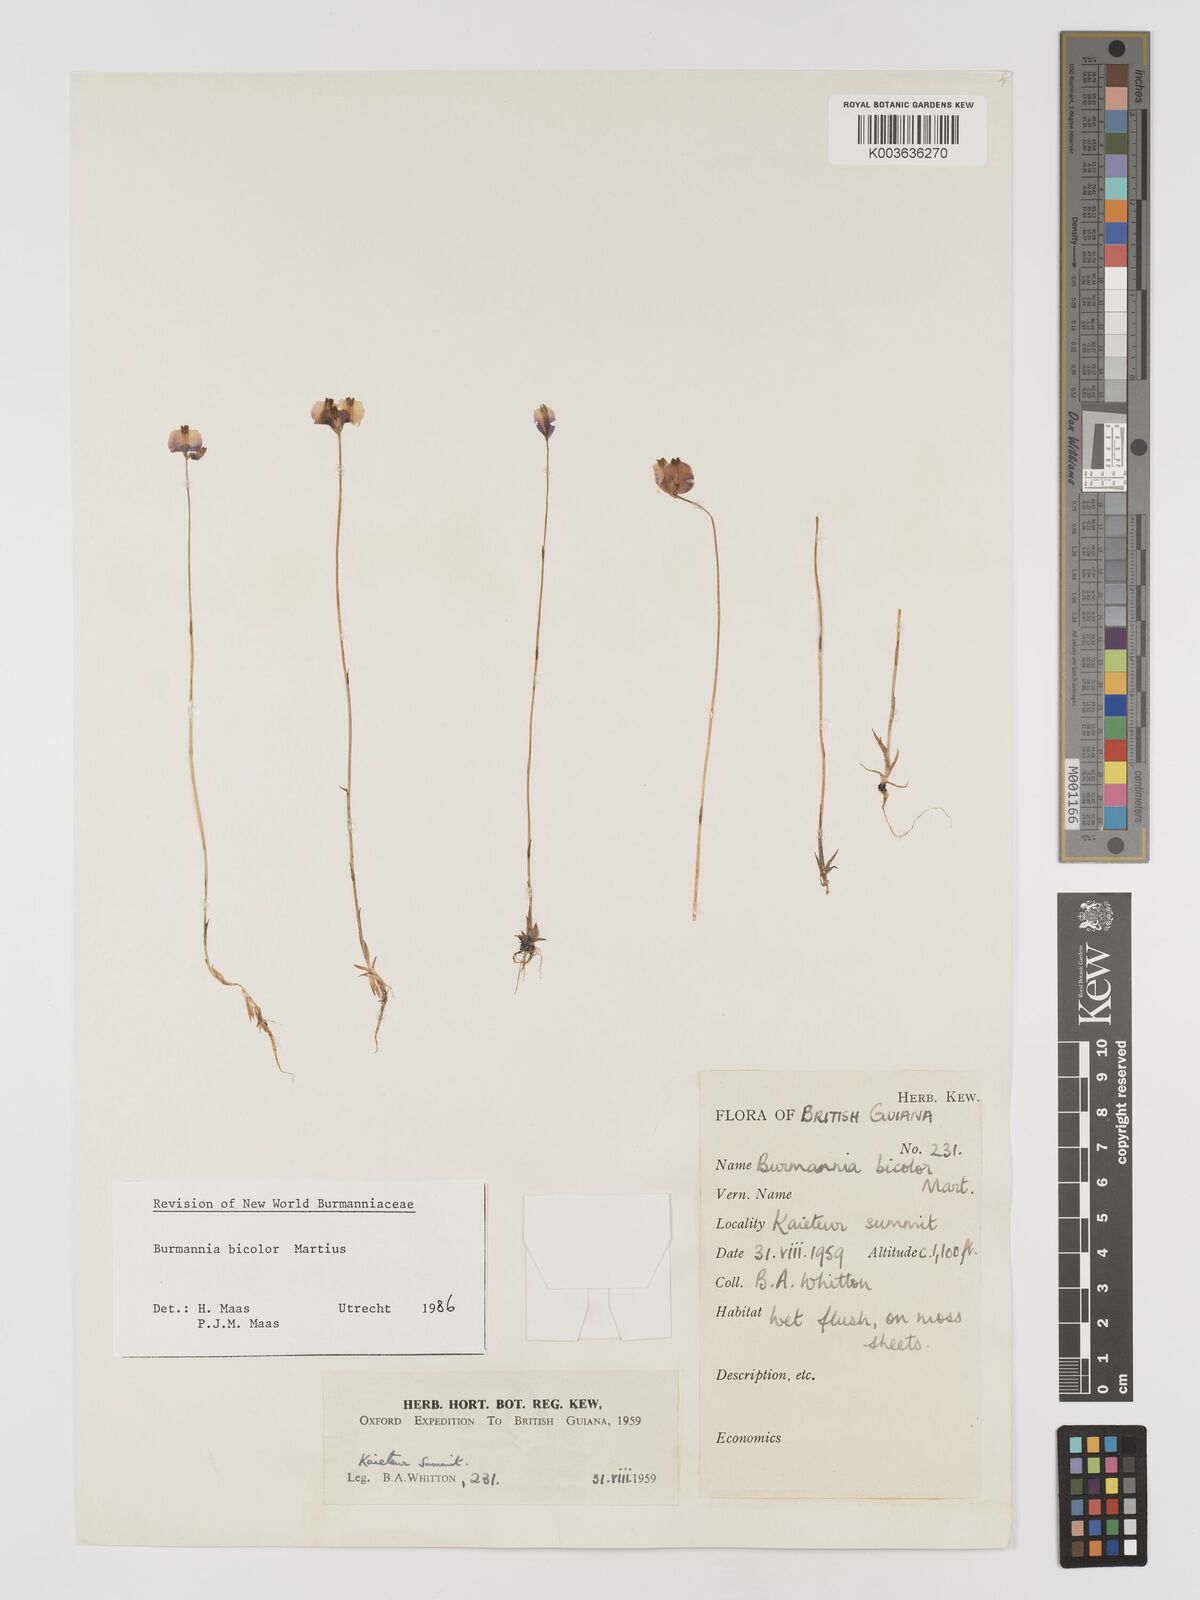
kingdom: Plantae
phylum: Tracheophyta
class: Liliopsida
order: Dioscoreales
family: Burmanniaceae
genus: Burmannia
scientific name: Burmannia bicolor
